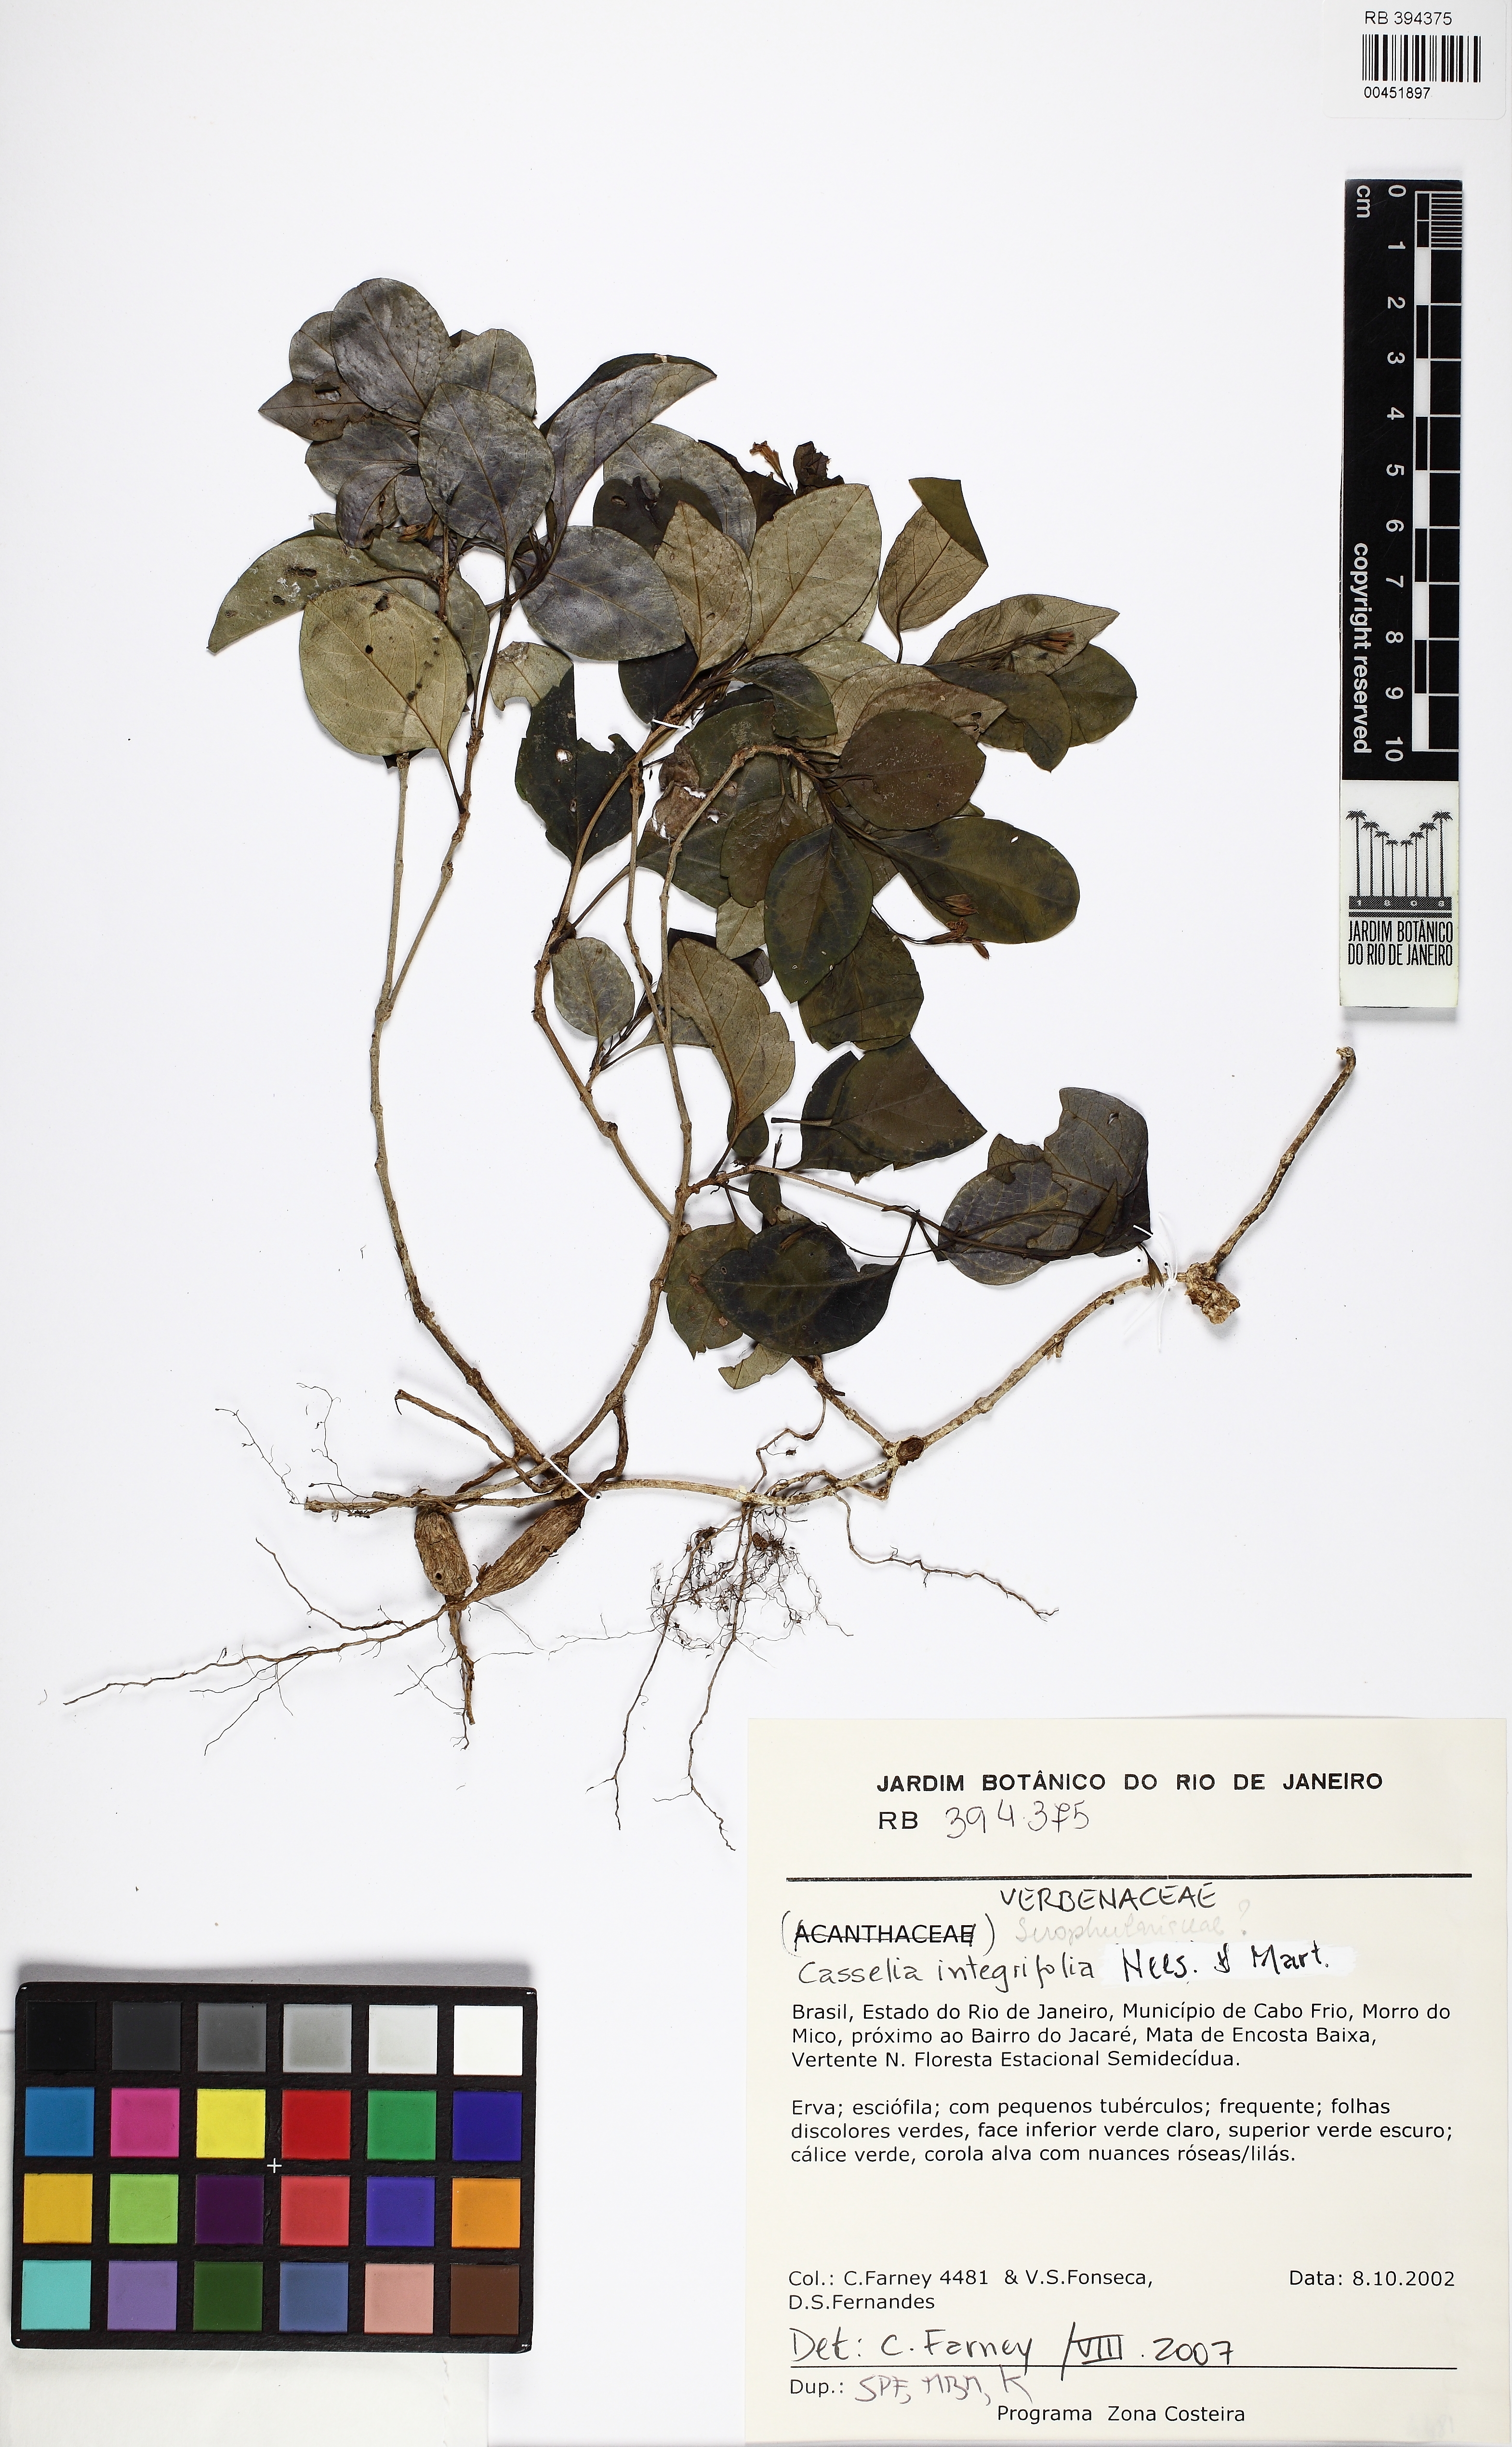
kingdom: Plantae
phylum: Tracheophyta
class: Magnoliopsida
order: Lamiales
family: Verbenaceae
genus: Casselia
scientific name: Casselia integrifolia
